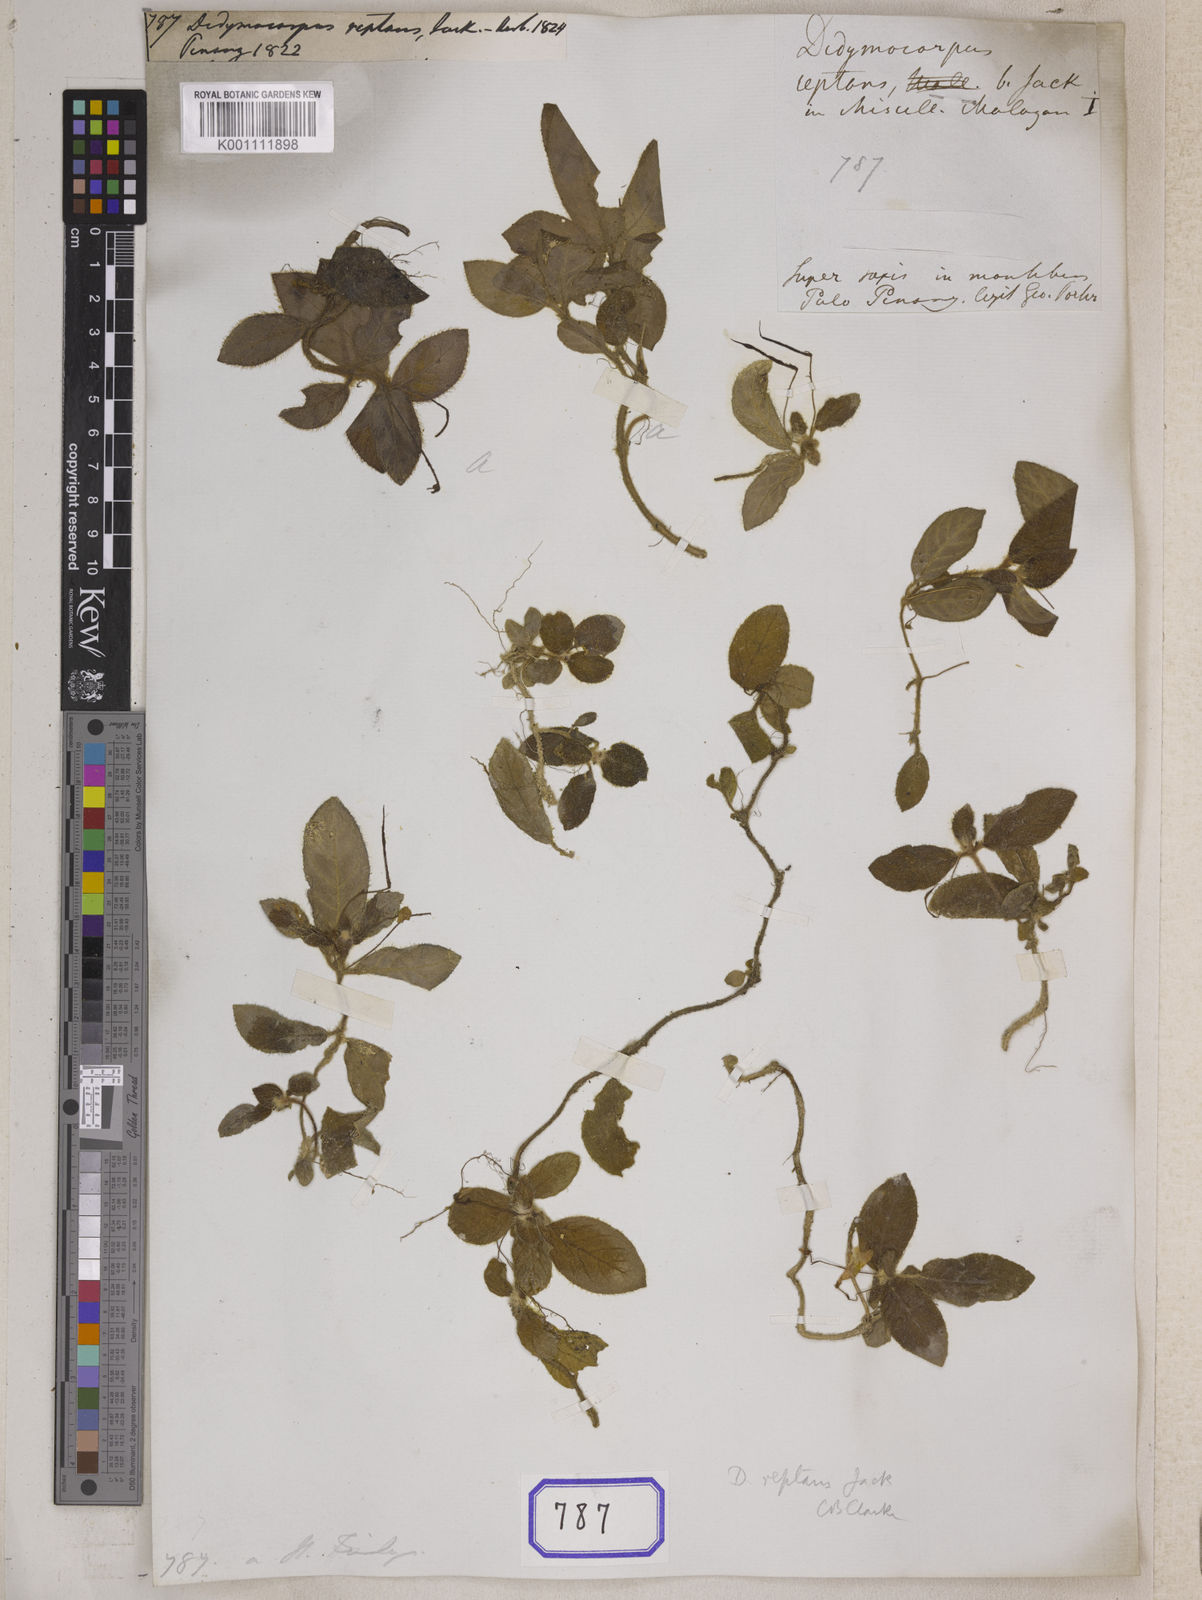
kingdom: Plantae
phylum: Tracheophyta
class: Magnoliopsida
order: Lamiales
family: Gesneriaceae
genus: Codonoboea
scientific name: Codonoboea reptans
